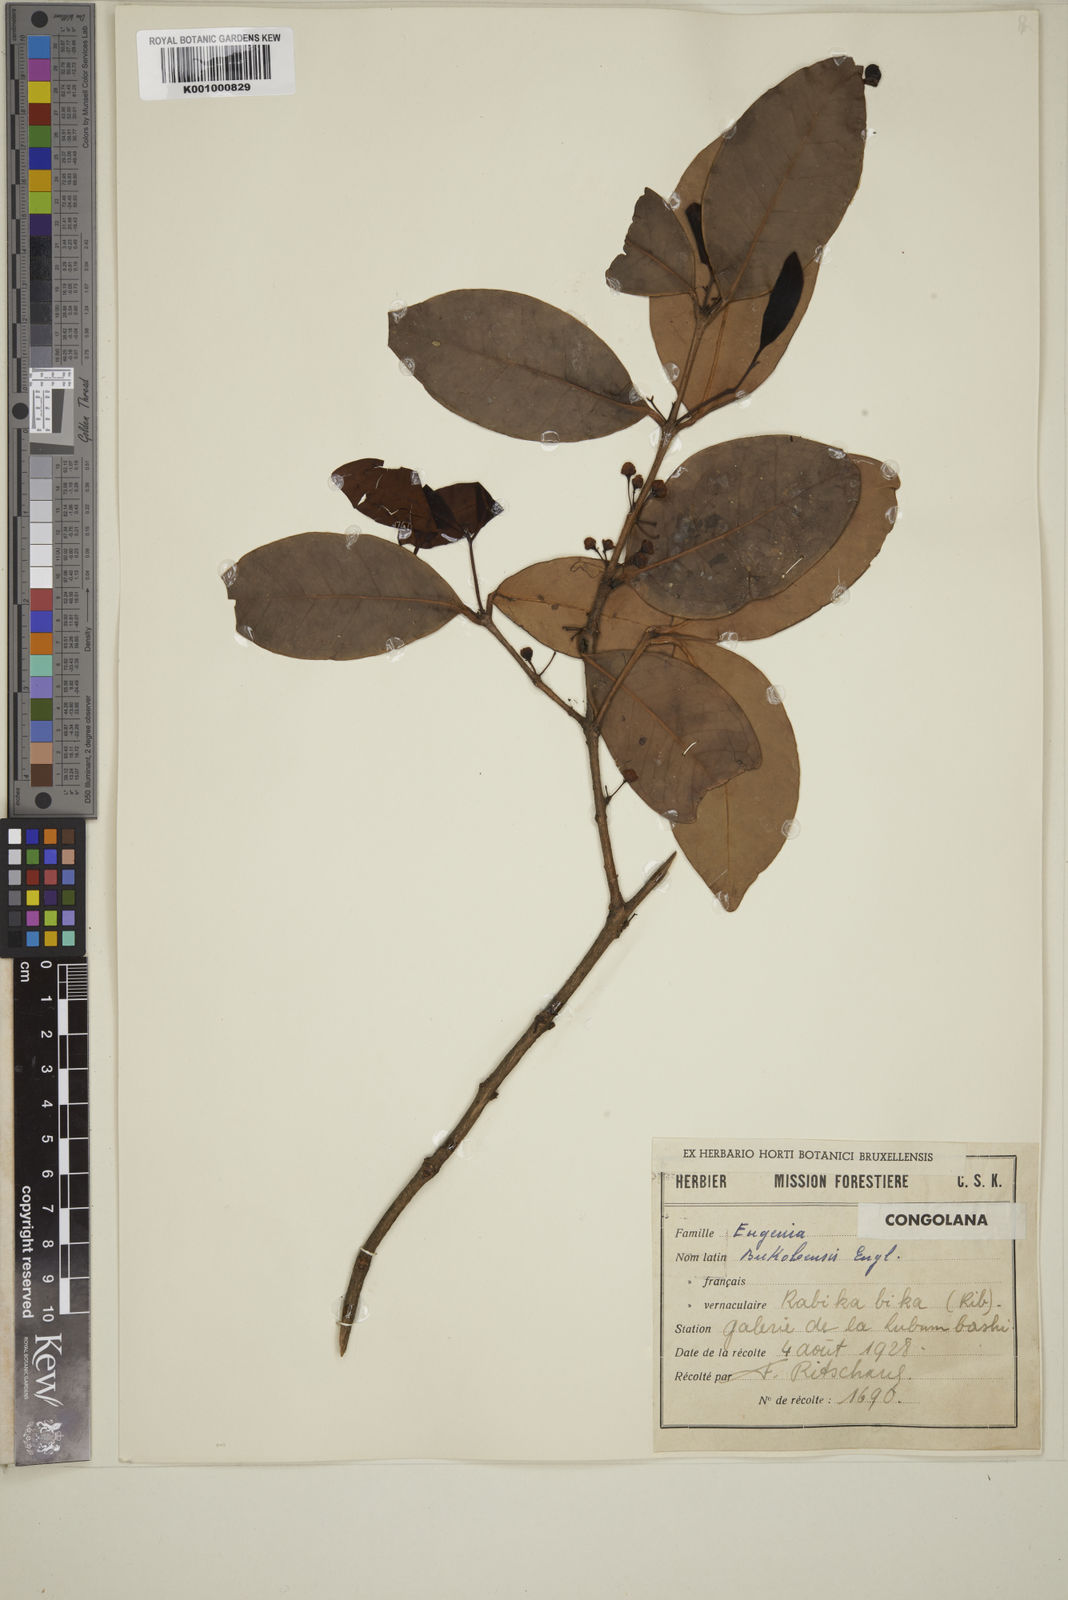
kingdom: Plantae
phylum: Tracheophyta
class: Magnoliopsida
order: Myrtales
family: Myrtaceae
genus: Eugenia
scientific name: Eugenia bukobensis
